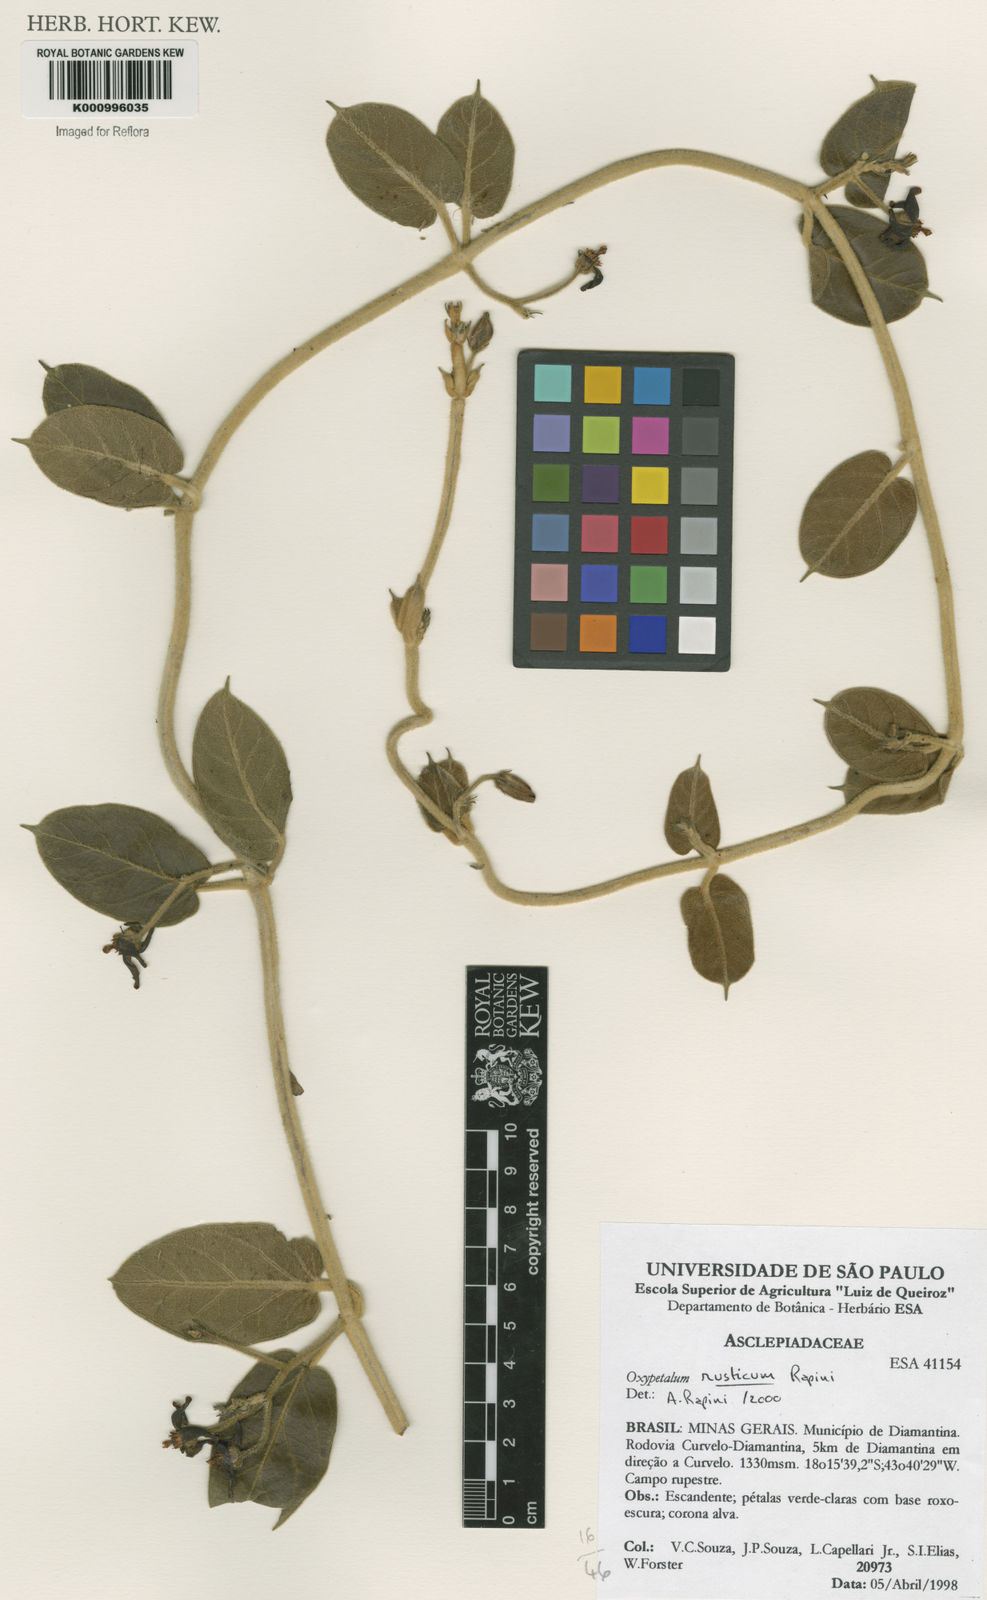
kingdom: Plantae
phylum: Tracheophyta
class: Magnoliopsida
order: Gentianales
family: Apocynaceae
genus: Oxypetalum
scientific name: Oxypetalum rusticum
